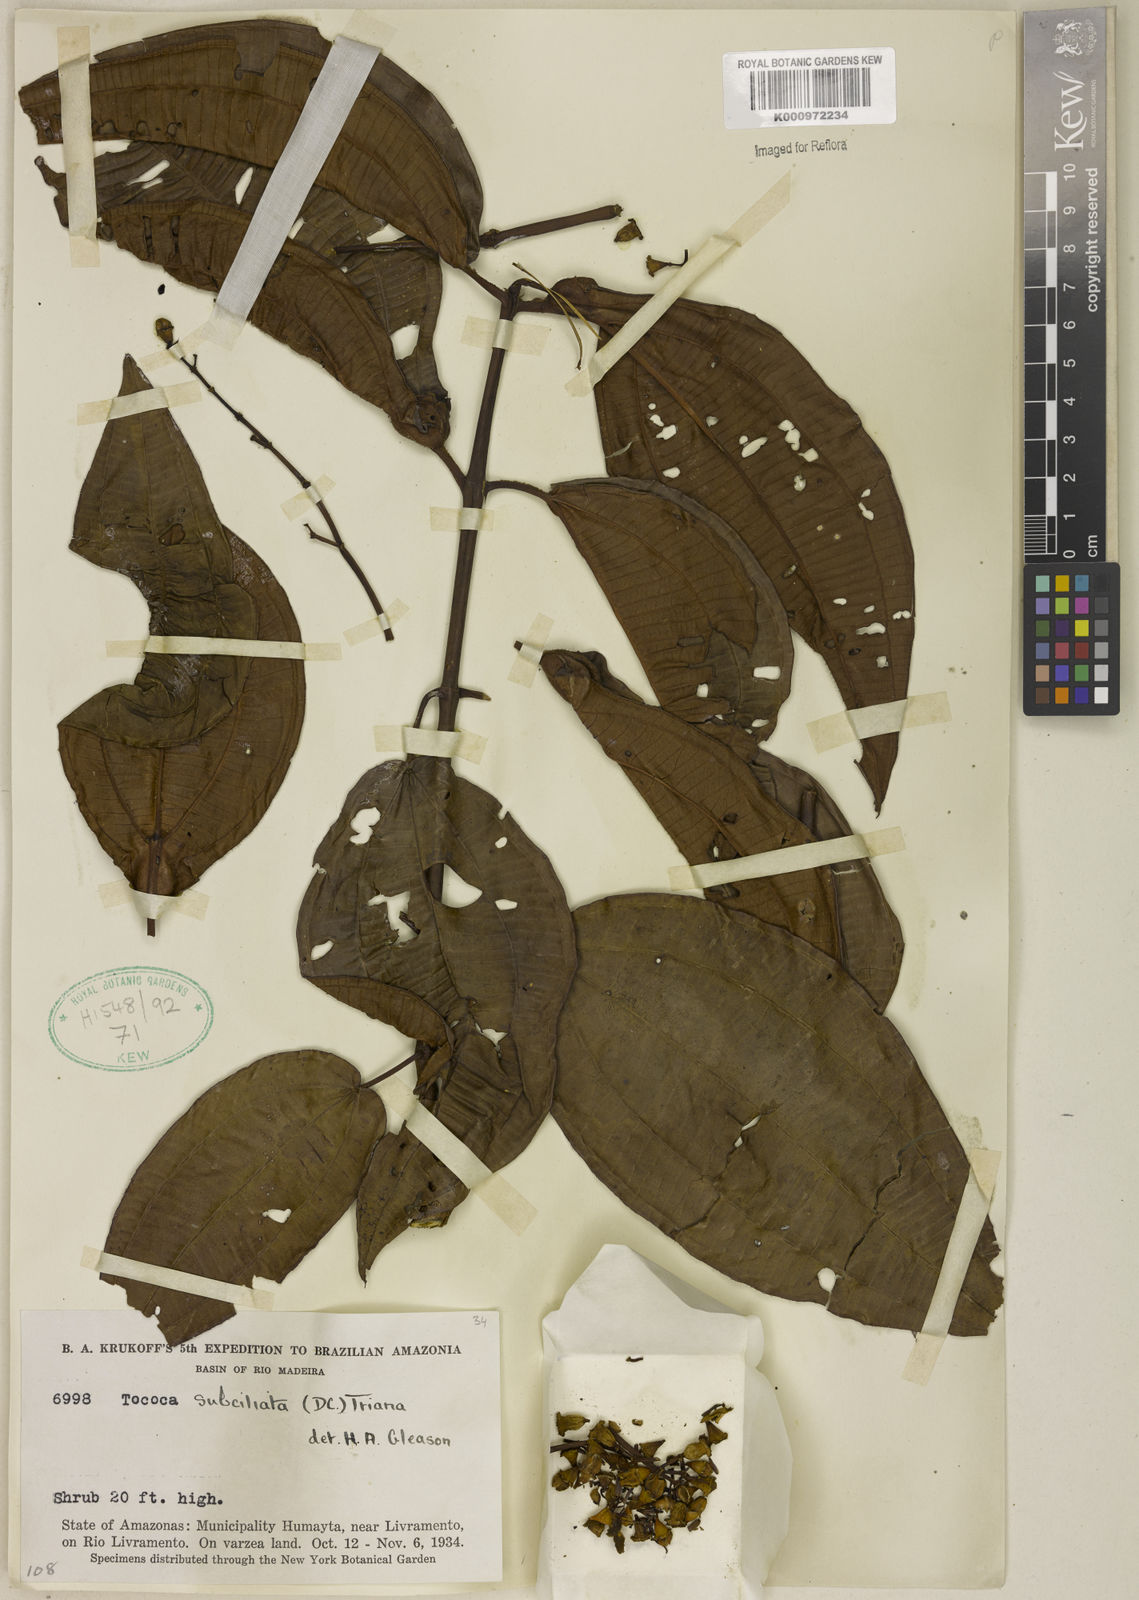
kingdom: Plantae
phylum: Tracheophyta
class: Magnoliopsida
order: Myrtales
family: Melastomataceae
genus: Miconia
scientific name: Miconia subciliata
